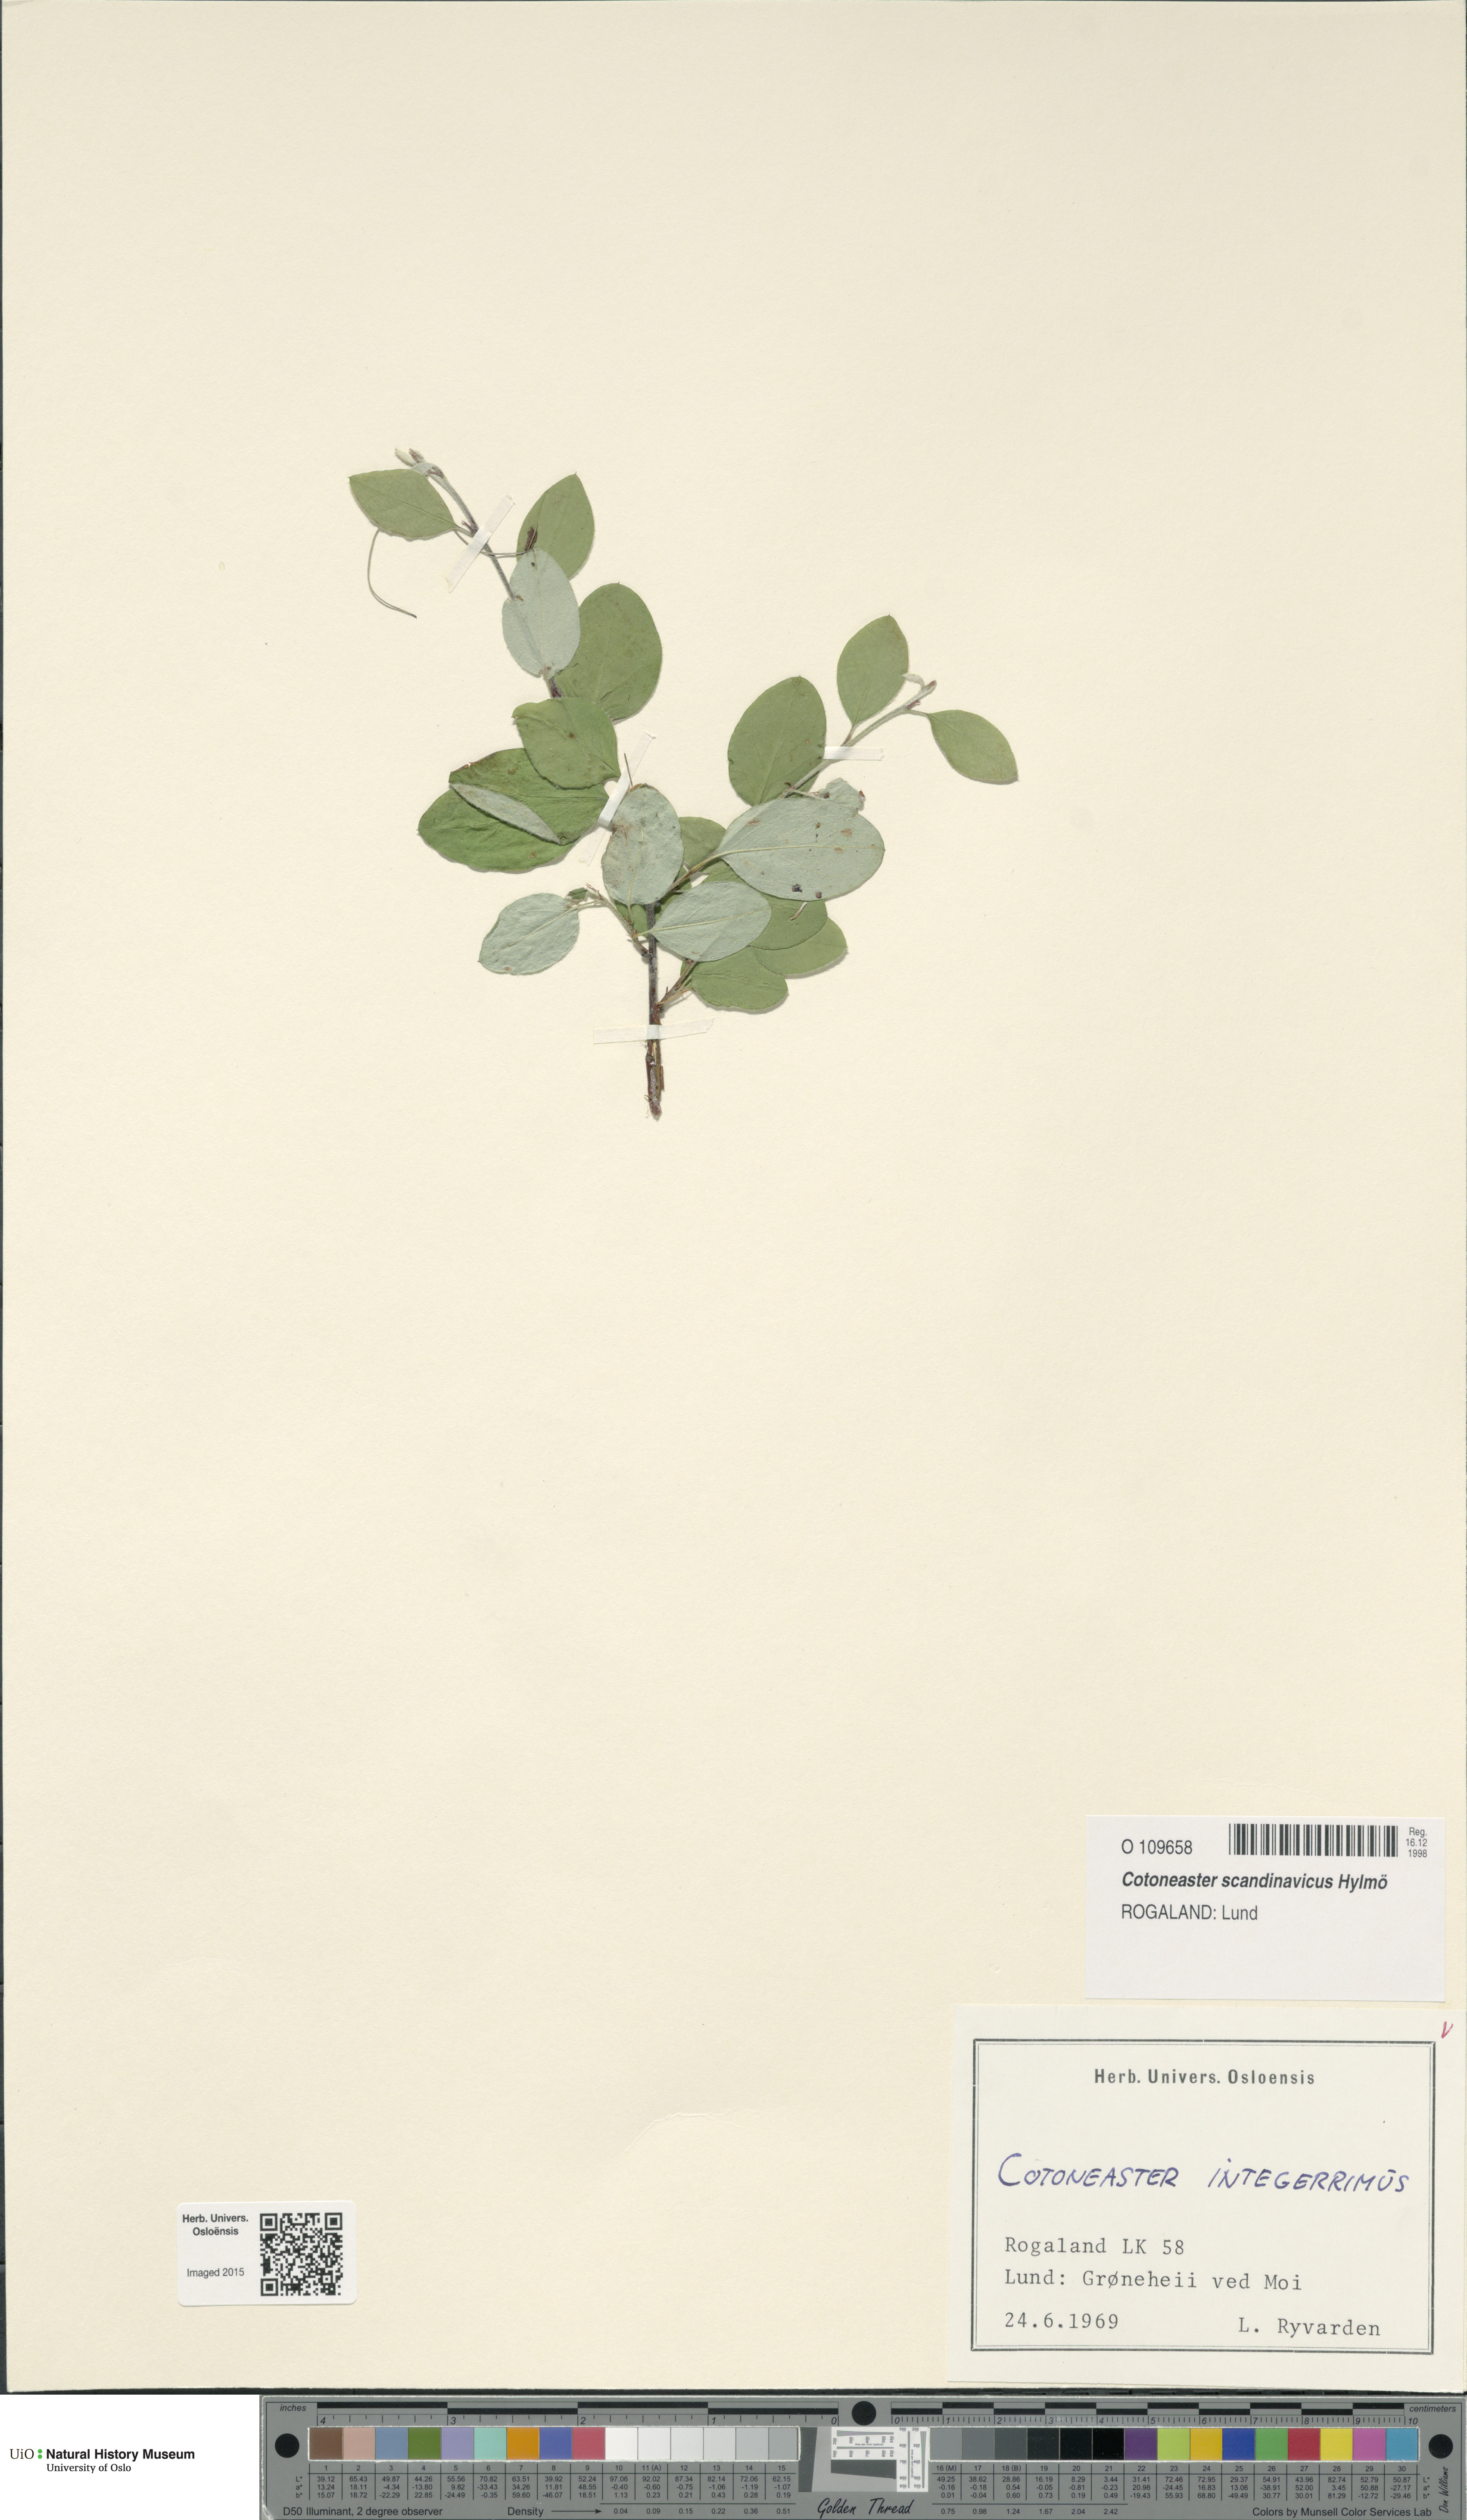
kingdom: Plantae
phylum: Tracheophyta
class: Magnoliopsida
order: Rosales
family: Rosaceae
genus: Cotoneaster
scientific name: Cotoneaster integerrimus
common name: Wild cotoneaster
